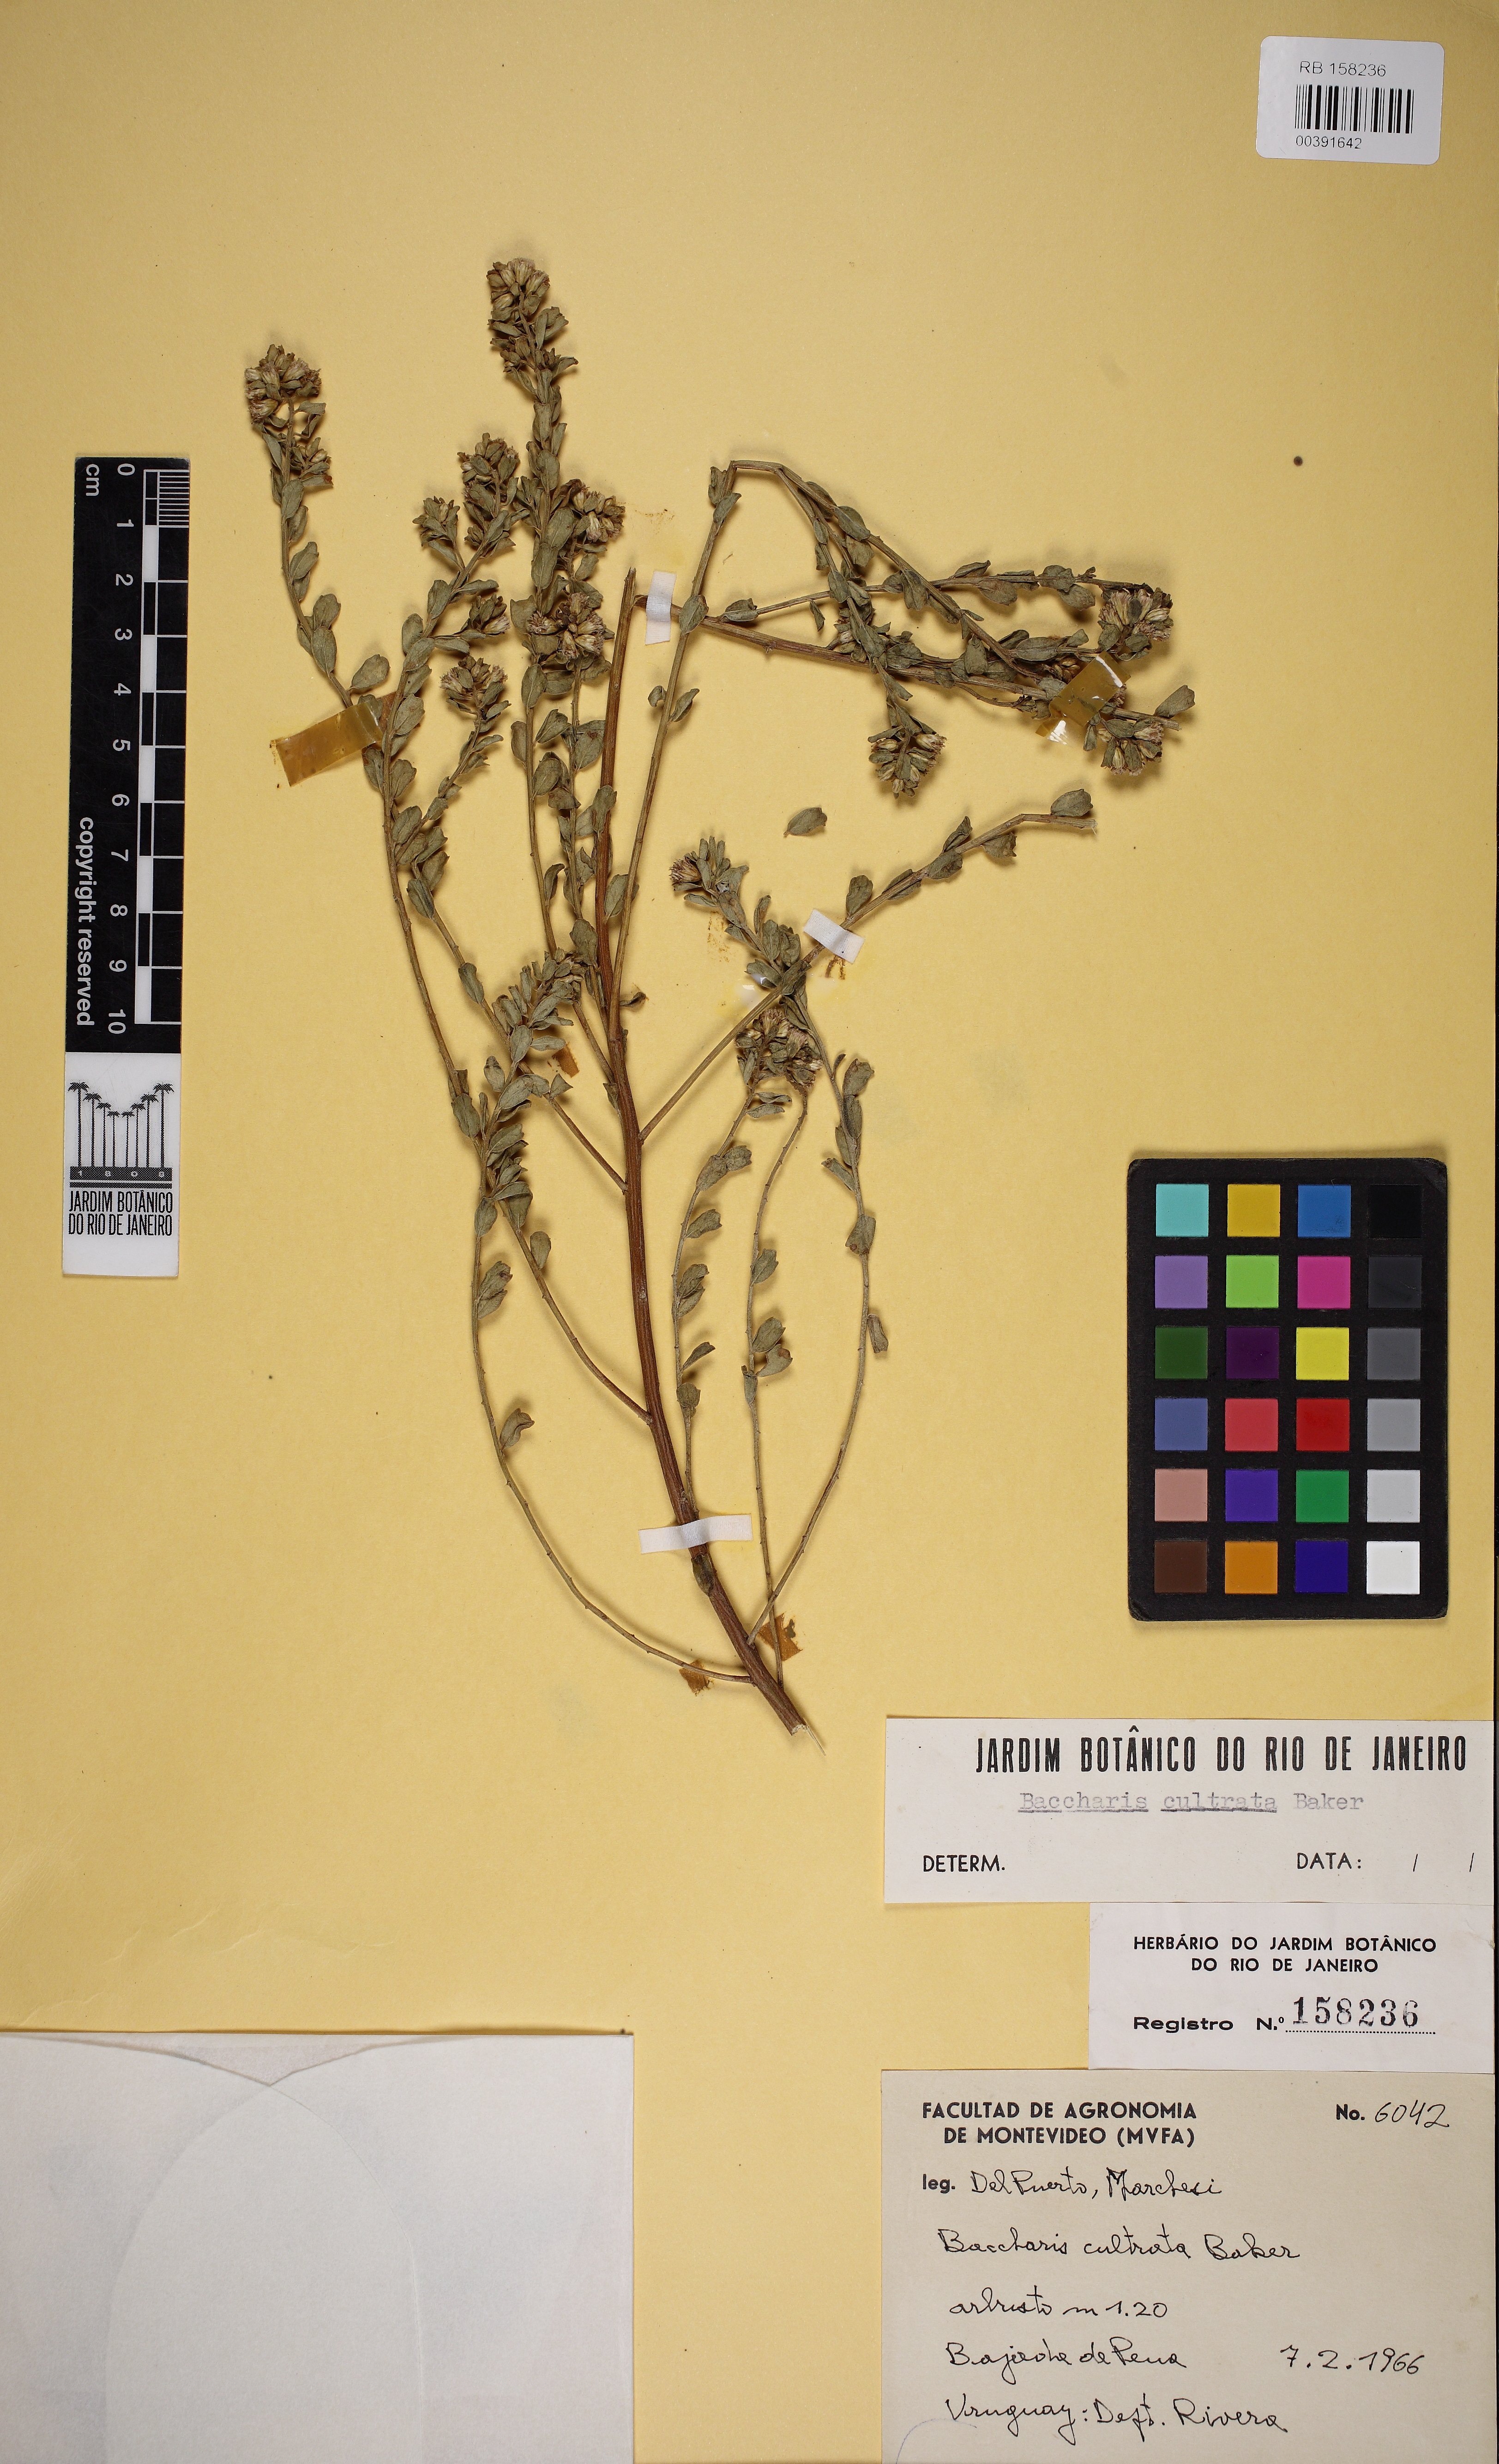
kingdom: Plantae
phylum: Tracheophyta
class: Magnoliopsida
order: Asterales
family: Asteraceae
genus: Baccharis
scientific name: Baccharis cultrata
